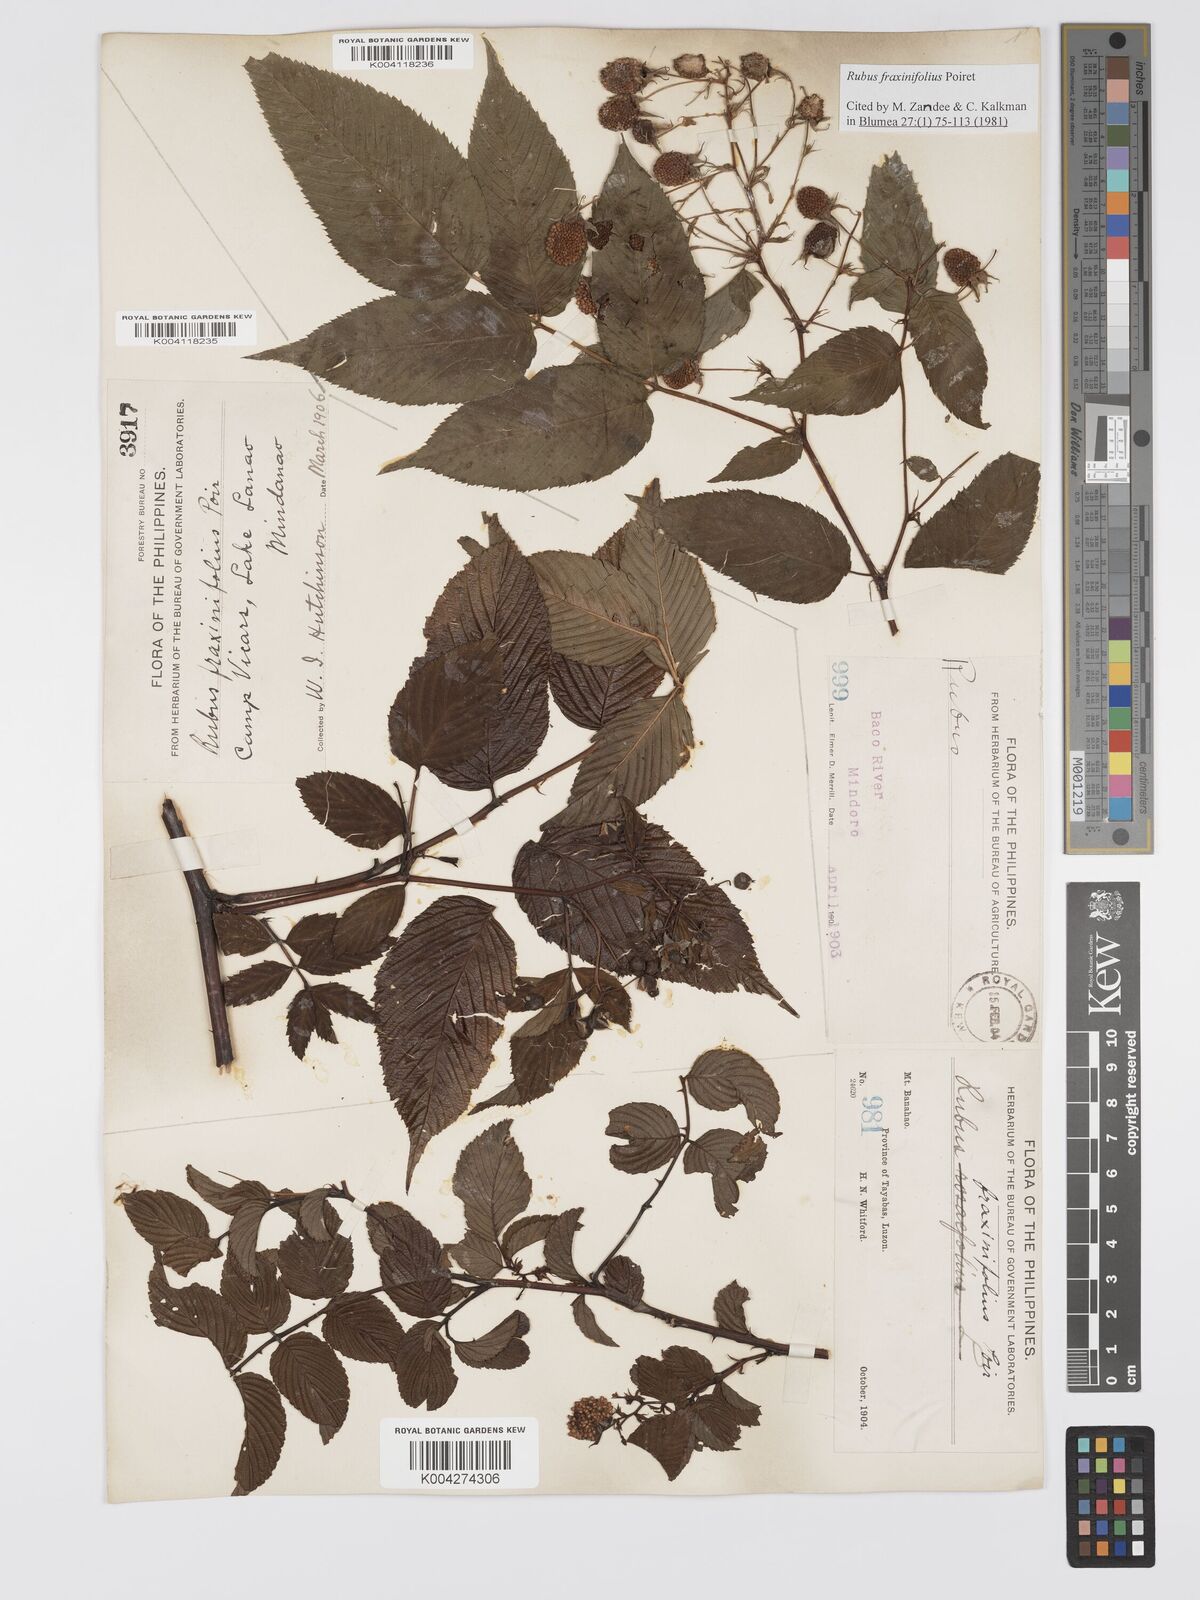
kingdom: Plantae
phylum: Tracheophyta
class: Magnoliopsida
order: Rosales
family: Rosaceae
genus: Rubus
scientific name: Rubus fraxinifolius
